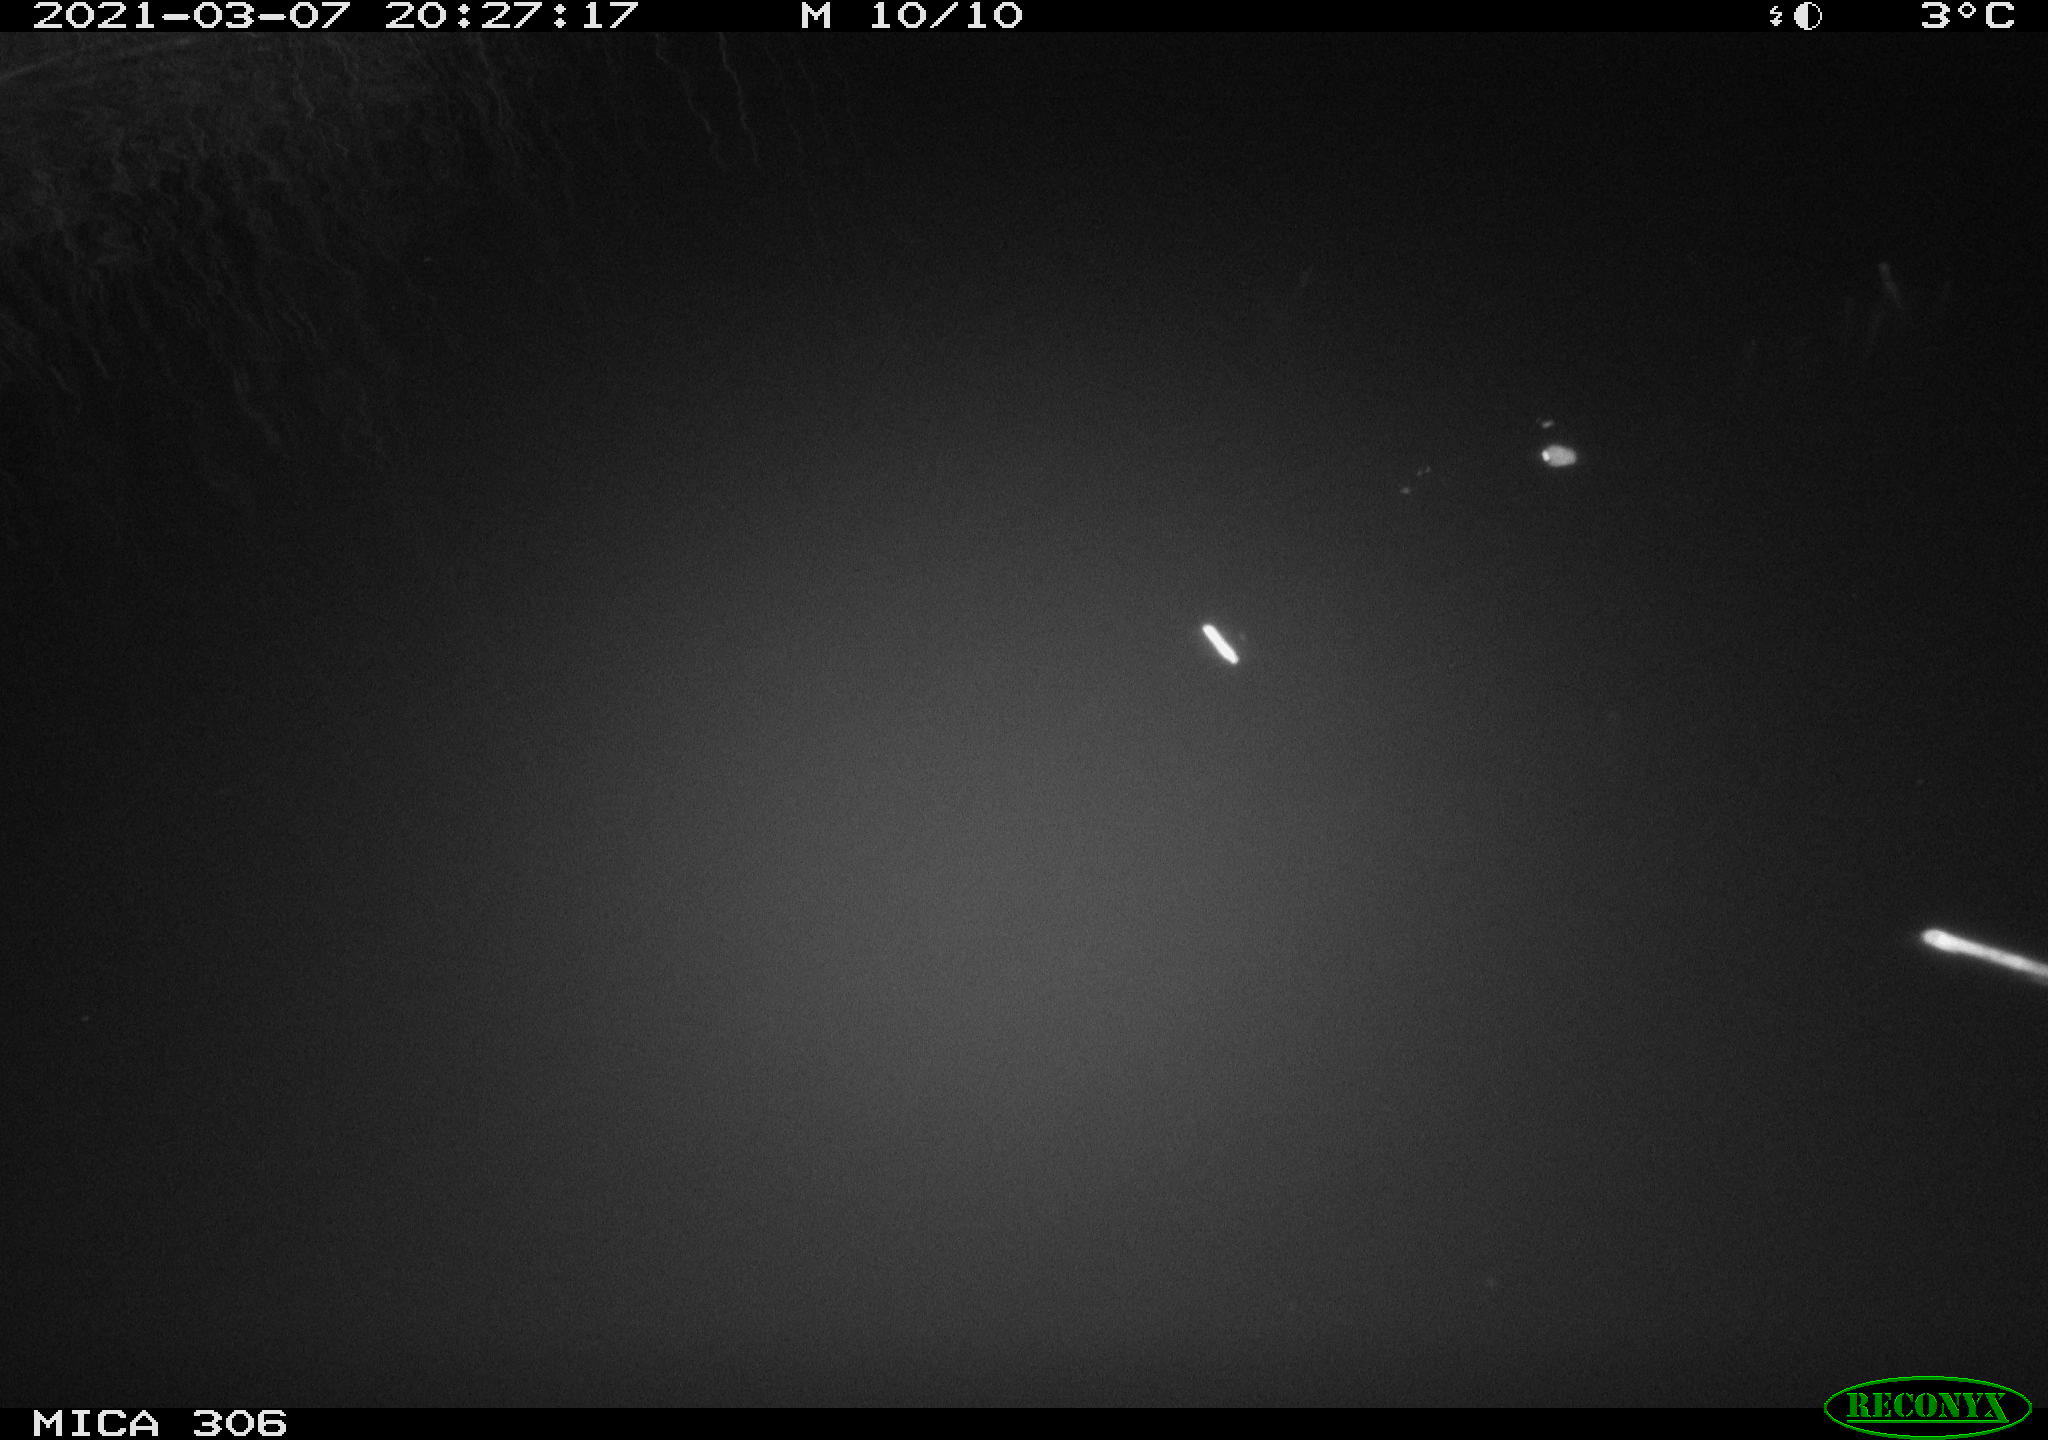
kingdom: Animalia
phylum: Chordata
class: Mammalia
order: Rodentia
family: Muridae
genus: Rattus
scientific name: Rattus norvegicus
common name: Brown rat
